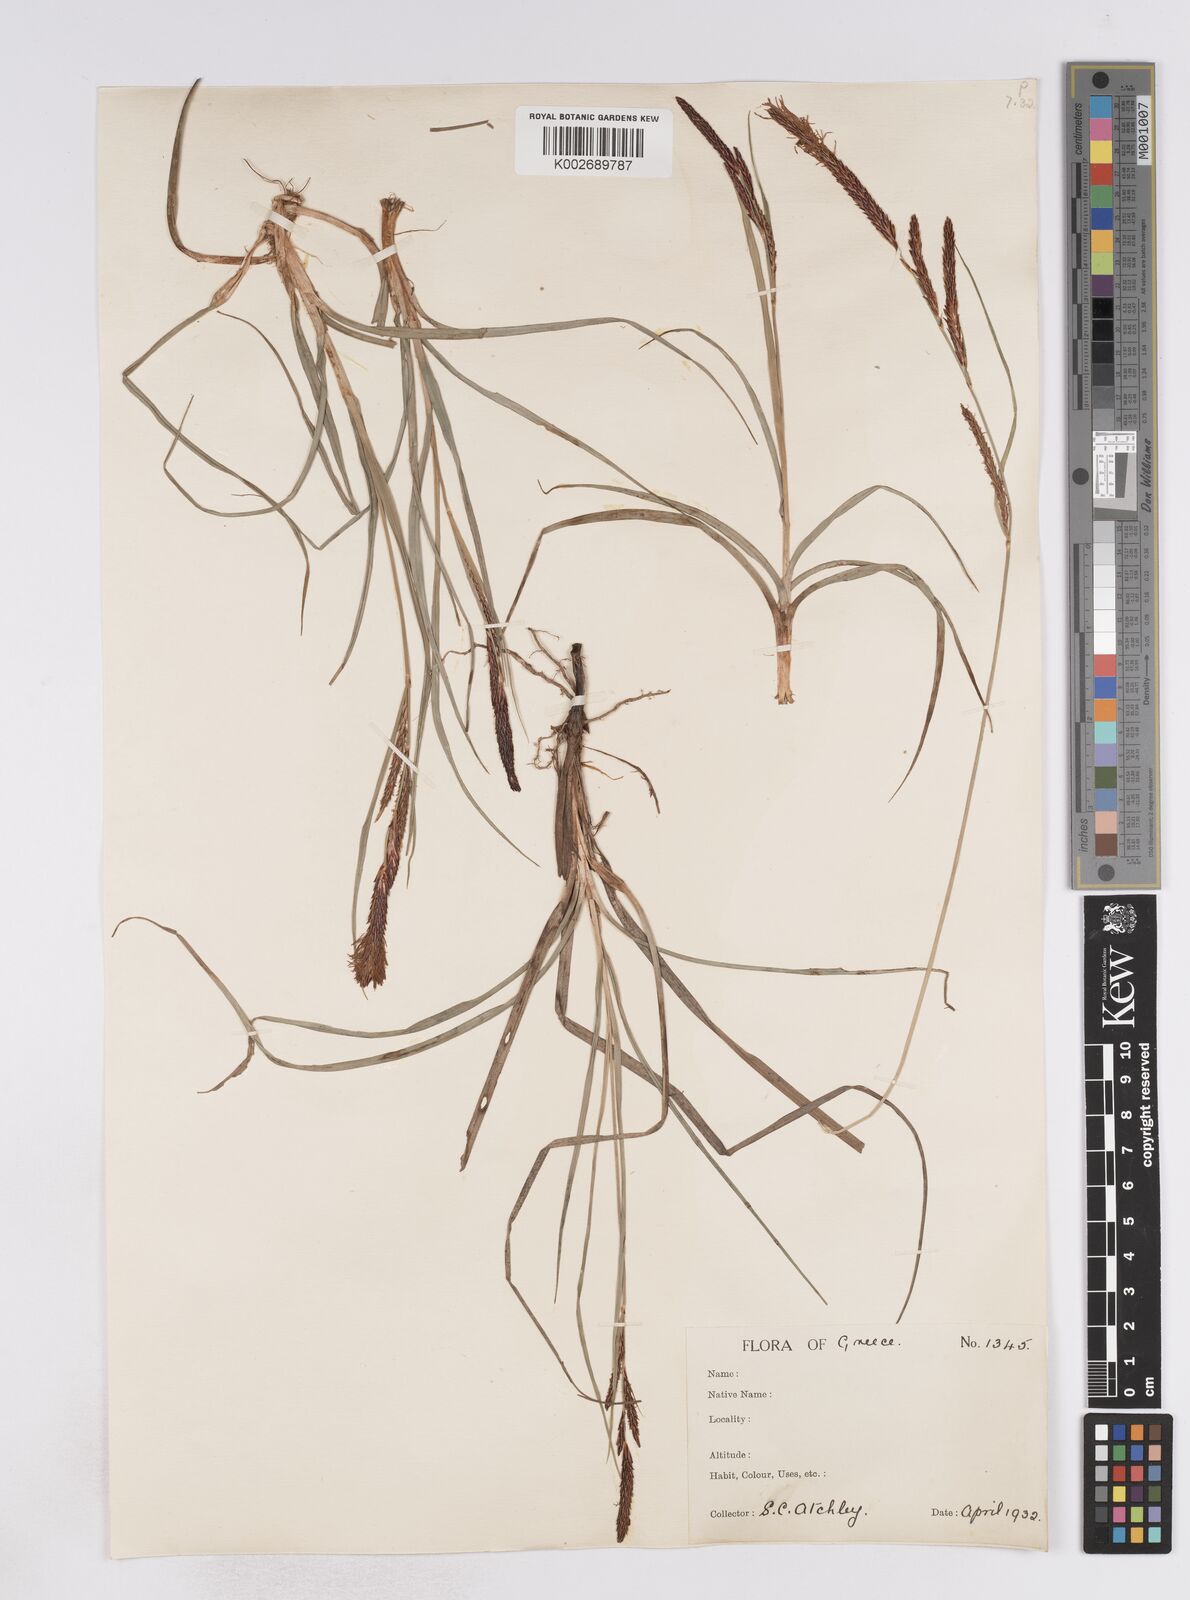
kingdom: Plantae
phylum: Tracheophyta
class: Liliopsida
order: Poales
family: Cyperaceae
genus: Carex
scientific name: Carex flacca
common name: Glaucous sedge
